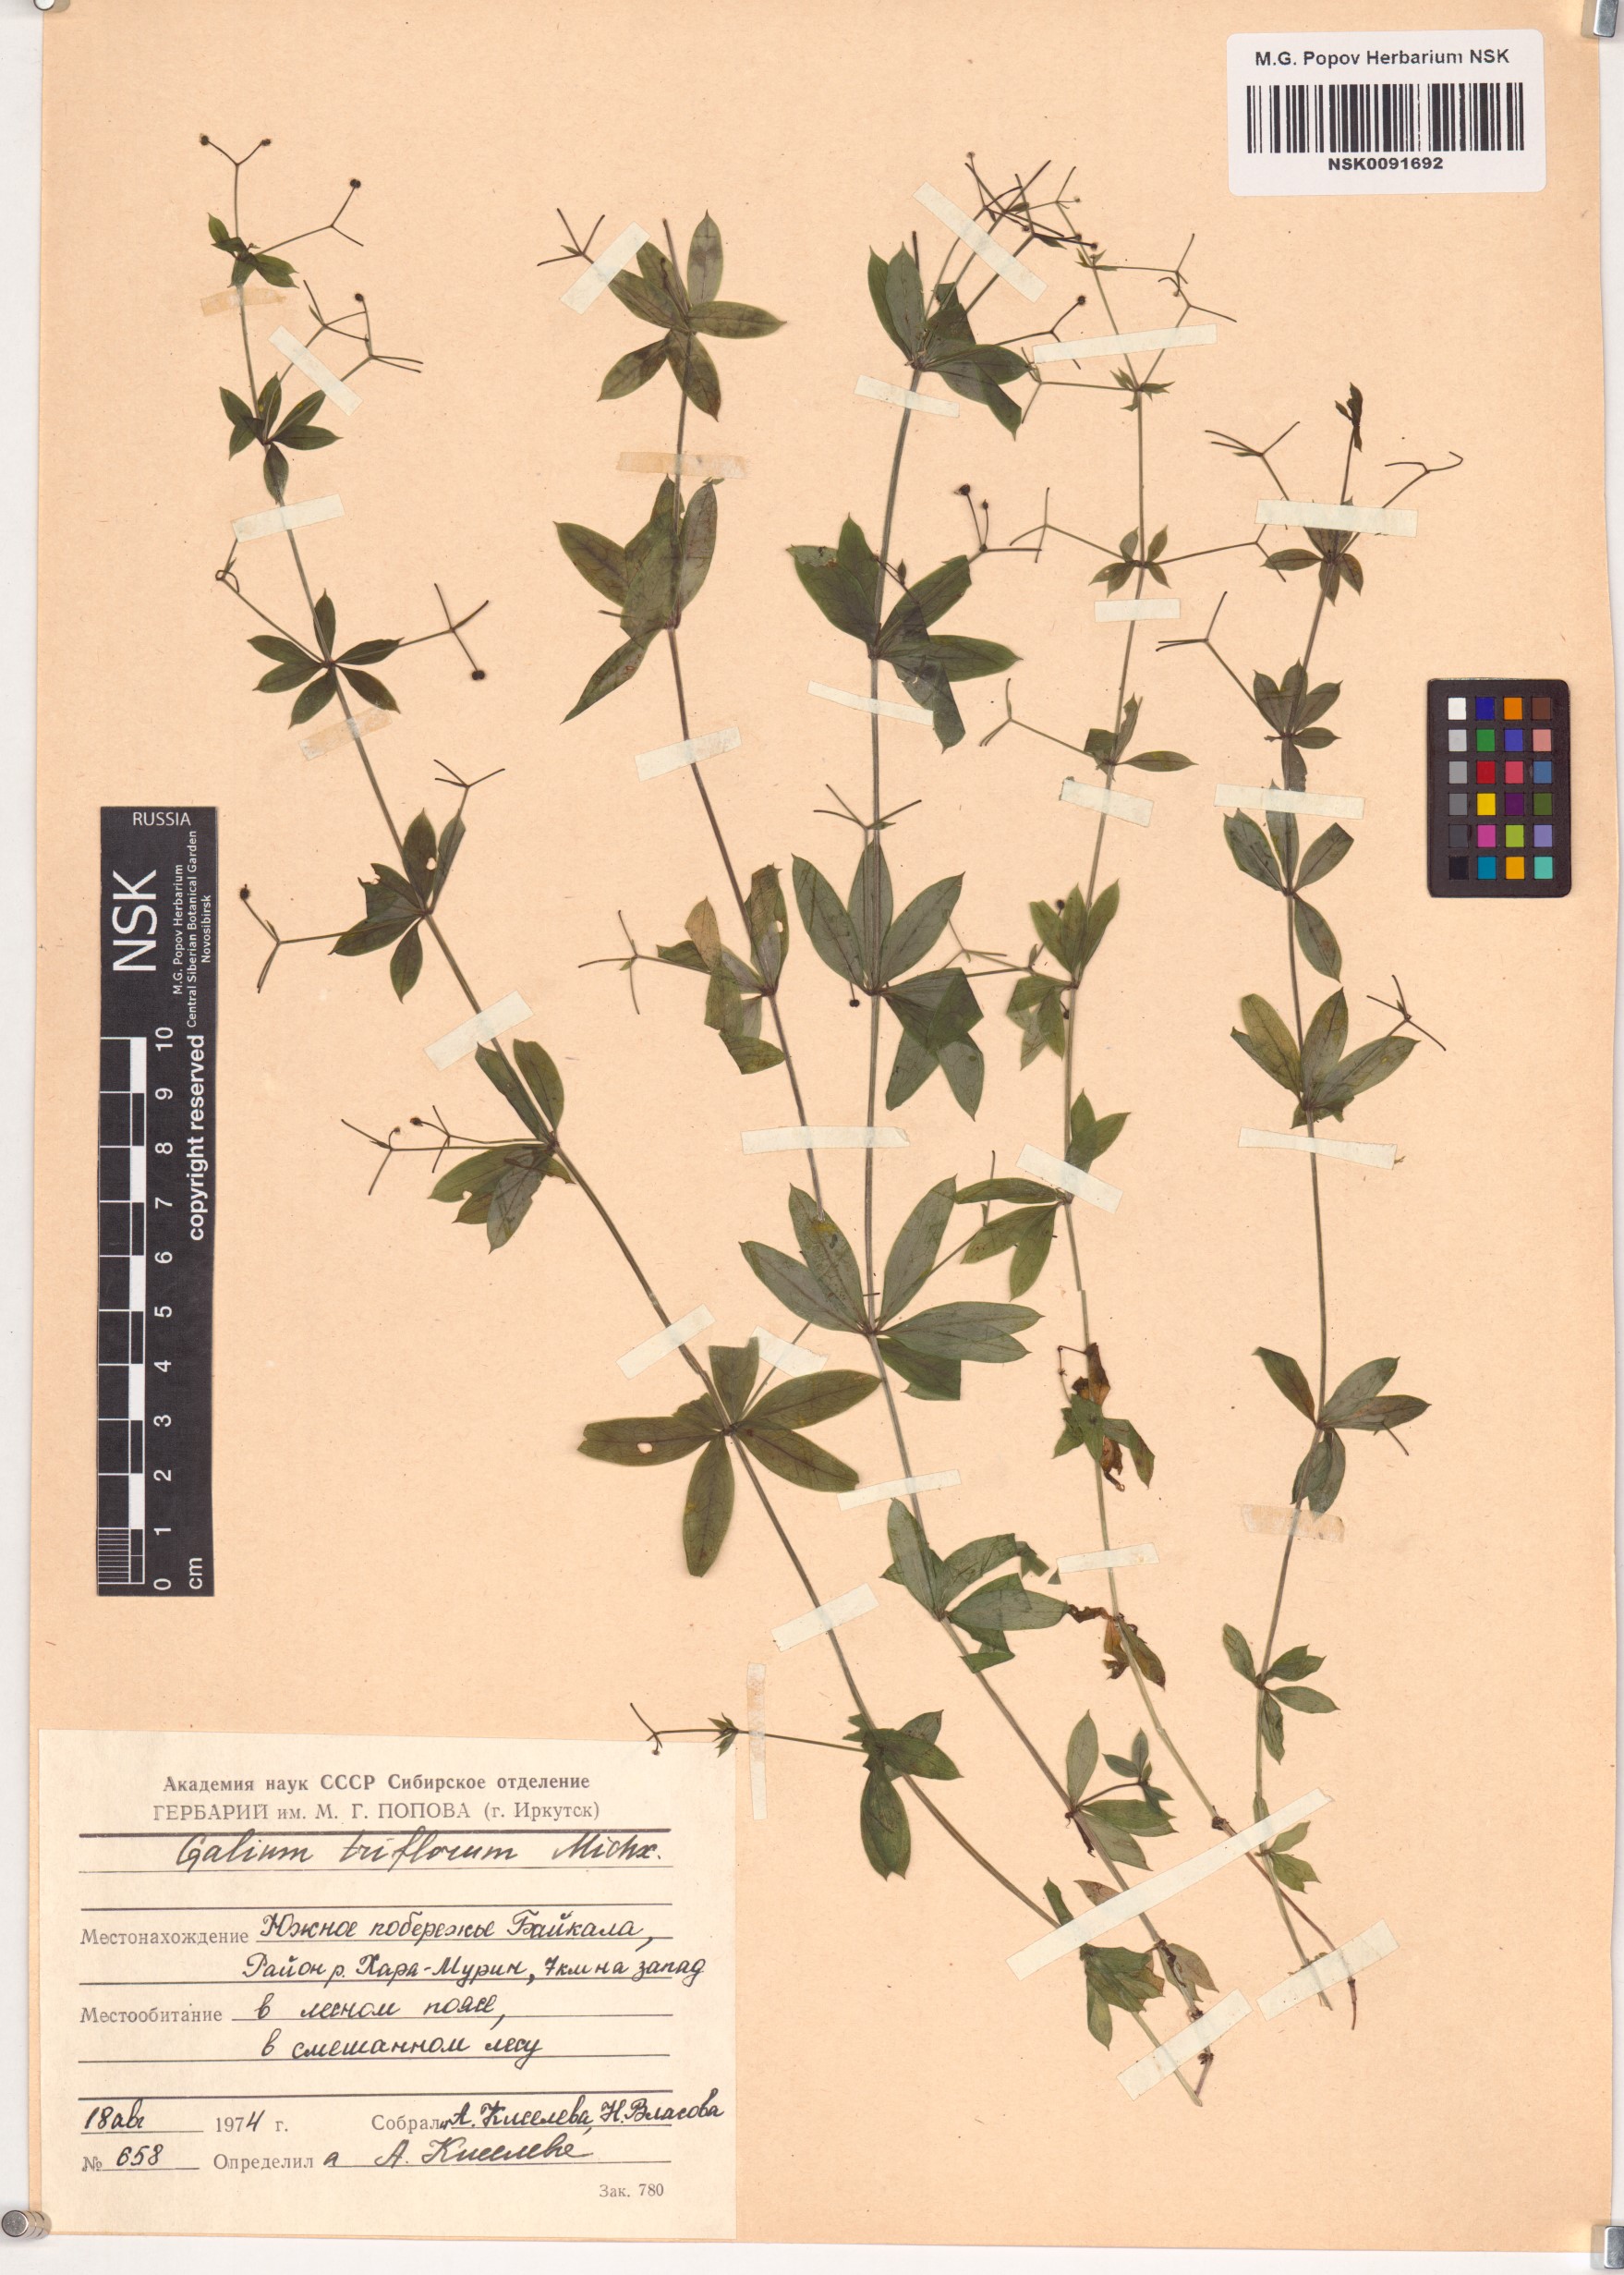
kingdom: Plantae
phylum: Tracheophyta
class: Magnoliopsida
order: Gentianales
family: Rubiaceae
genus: Galium
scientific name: Galium triflorum
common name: Fragrant bedstraw
